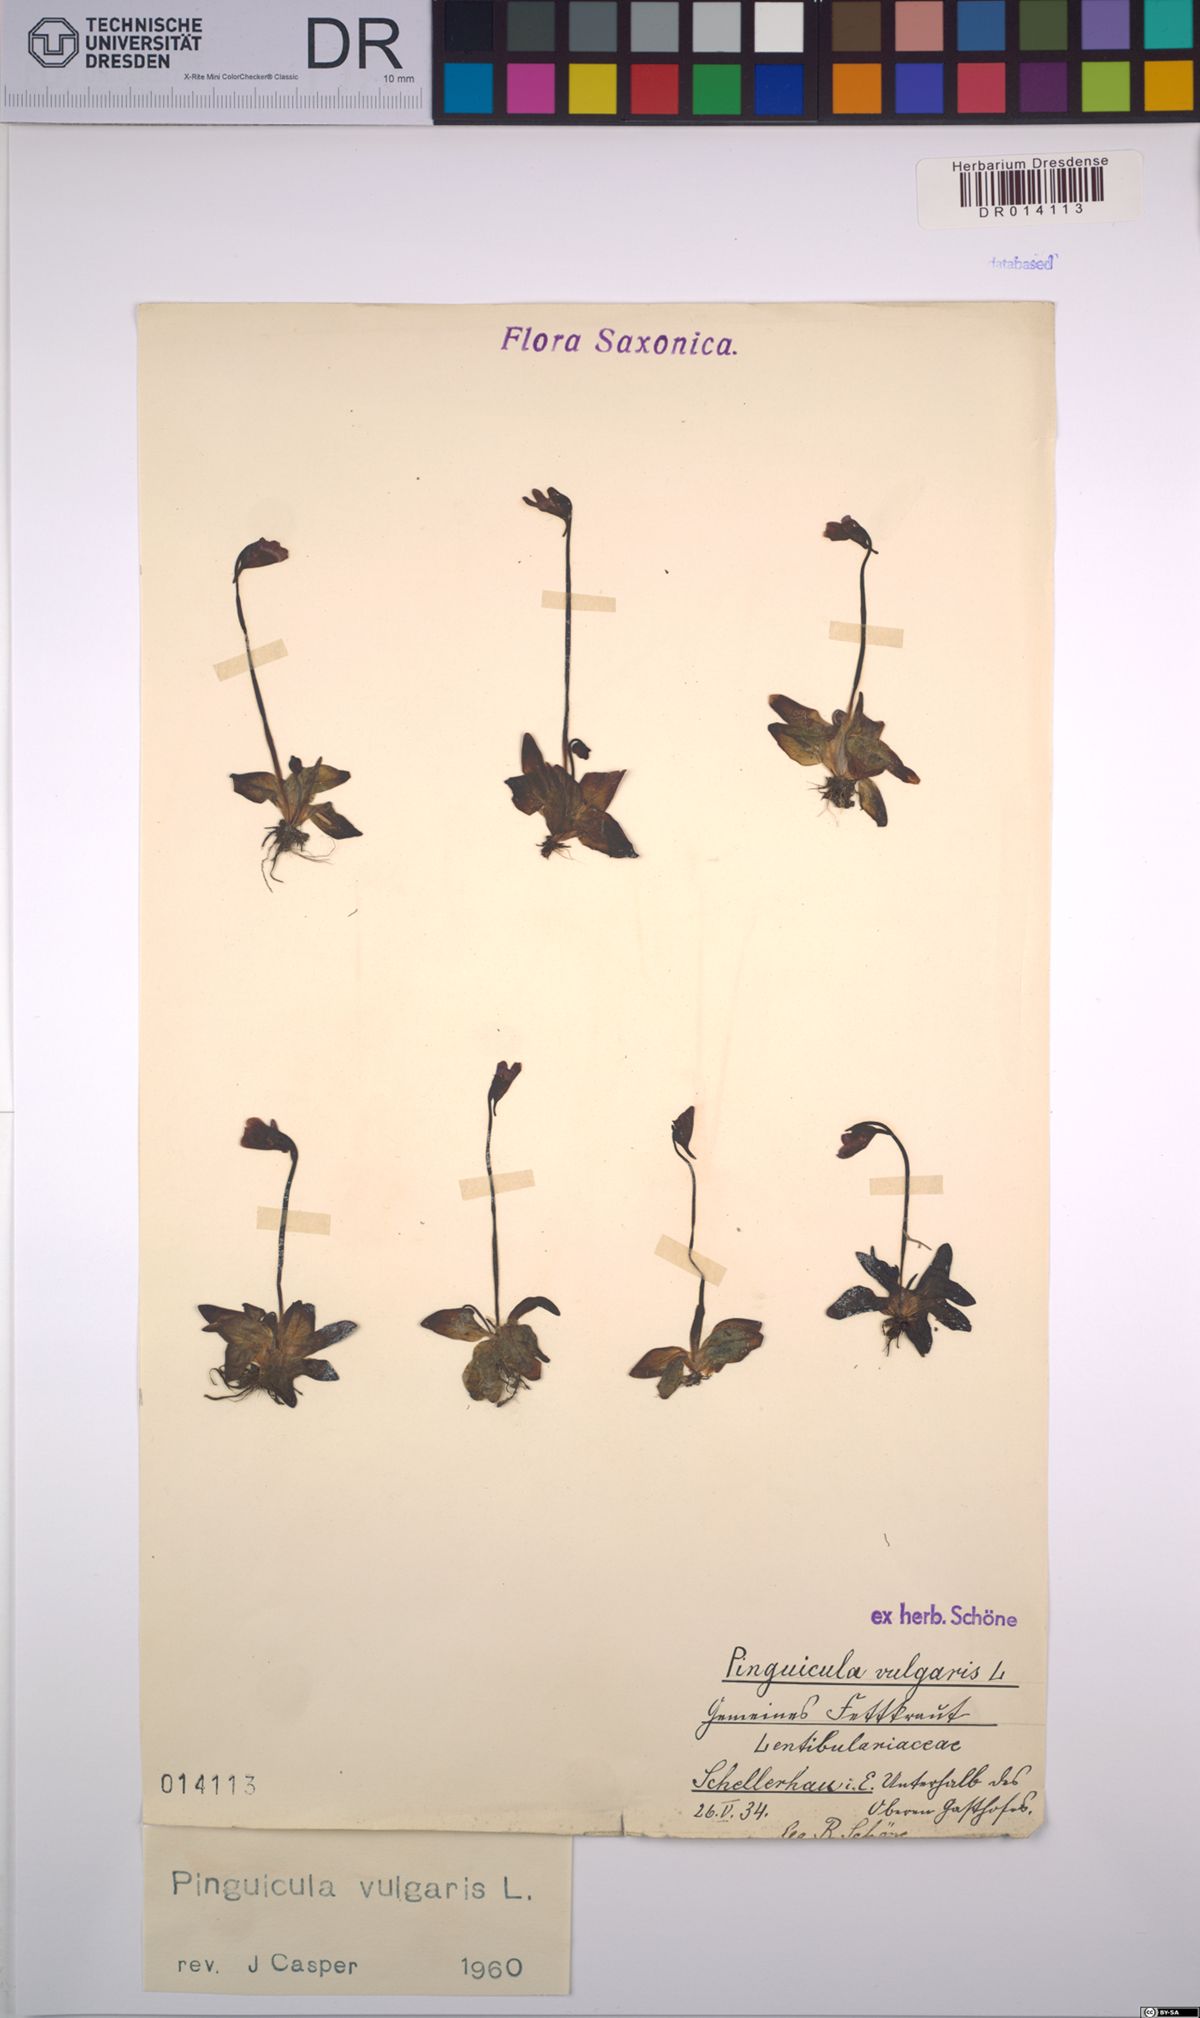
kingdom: Plantae
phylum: Tracheophyta
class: Magnoliopsida
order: Lamiales
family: Lentibulariaceae
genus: Pinguicula
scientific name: Pinguicula vulgaris
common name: Common butterwort
